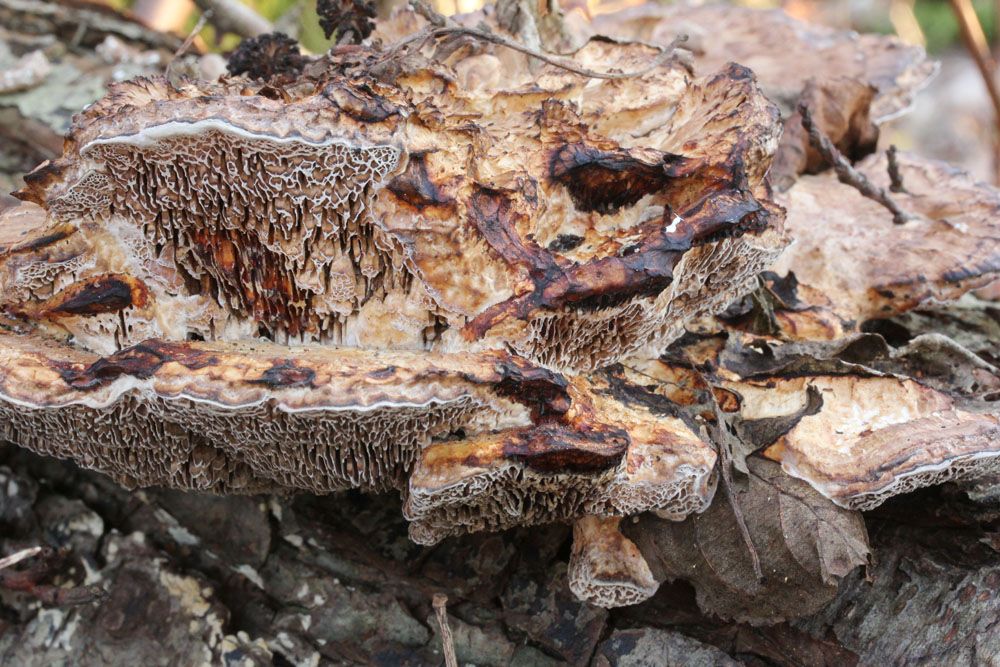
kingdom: Fungi
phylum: Basidiomycota
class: Agaricomycetes
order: Polyporales
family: Polyporaceae
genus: Daedaleopsis
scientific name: Daedaleopsis confragosa
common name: rødmende læderporesvamp
